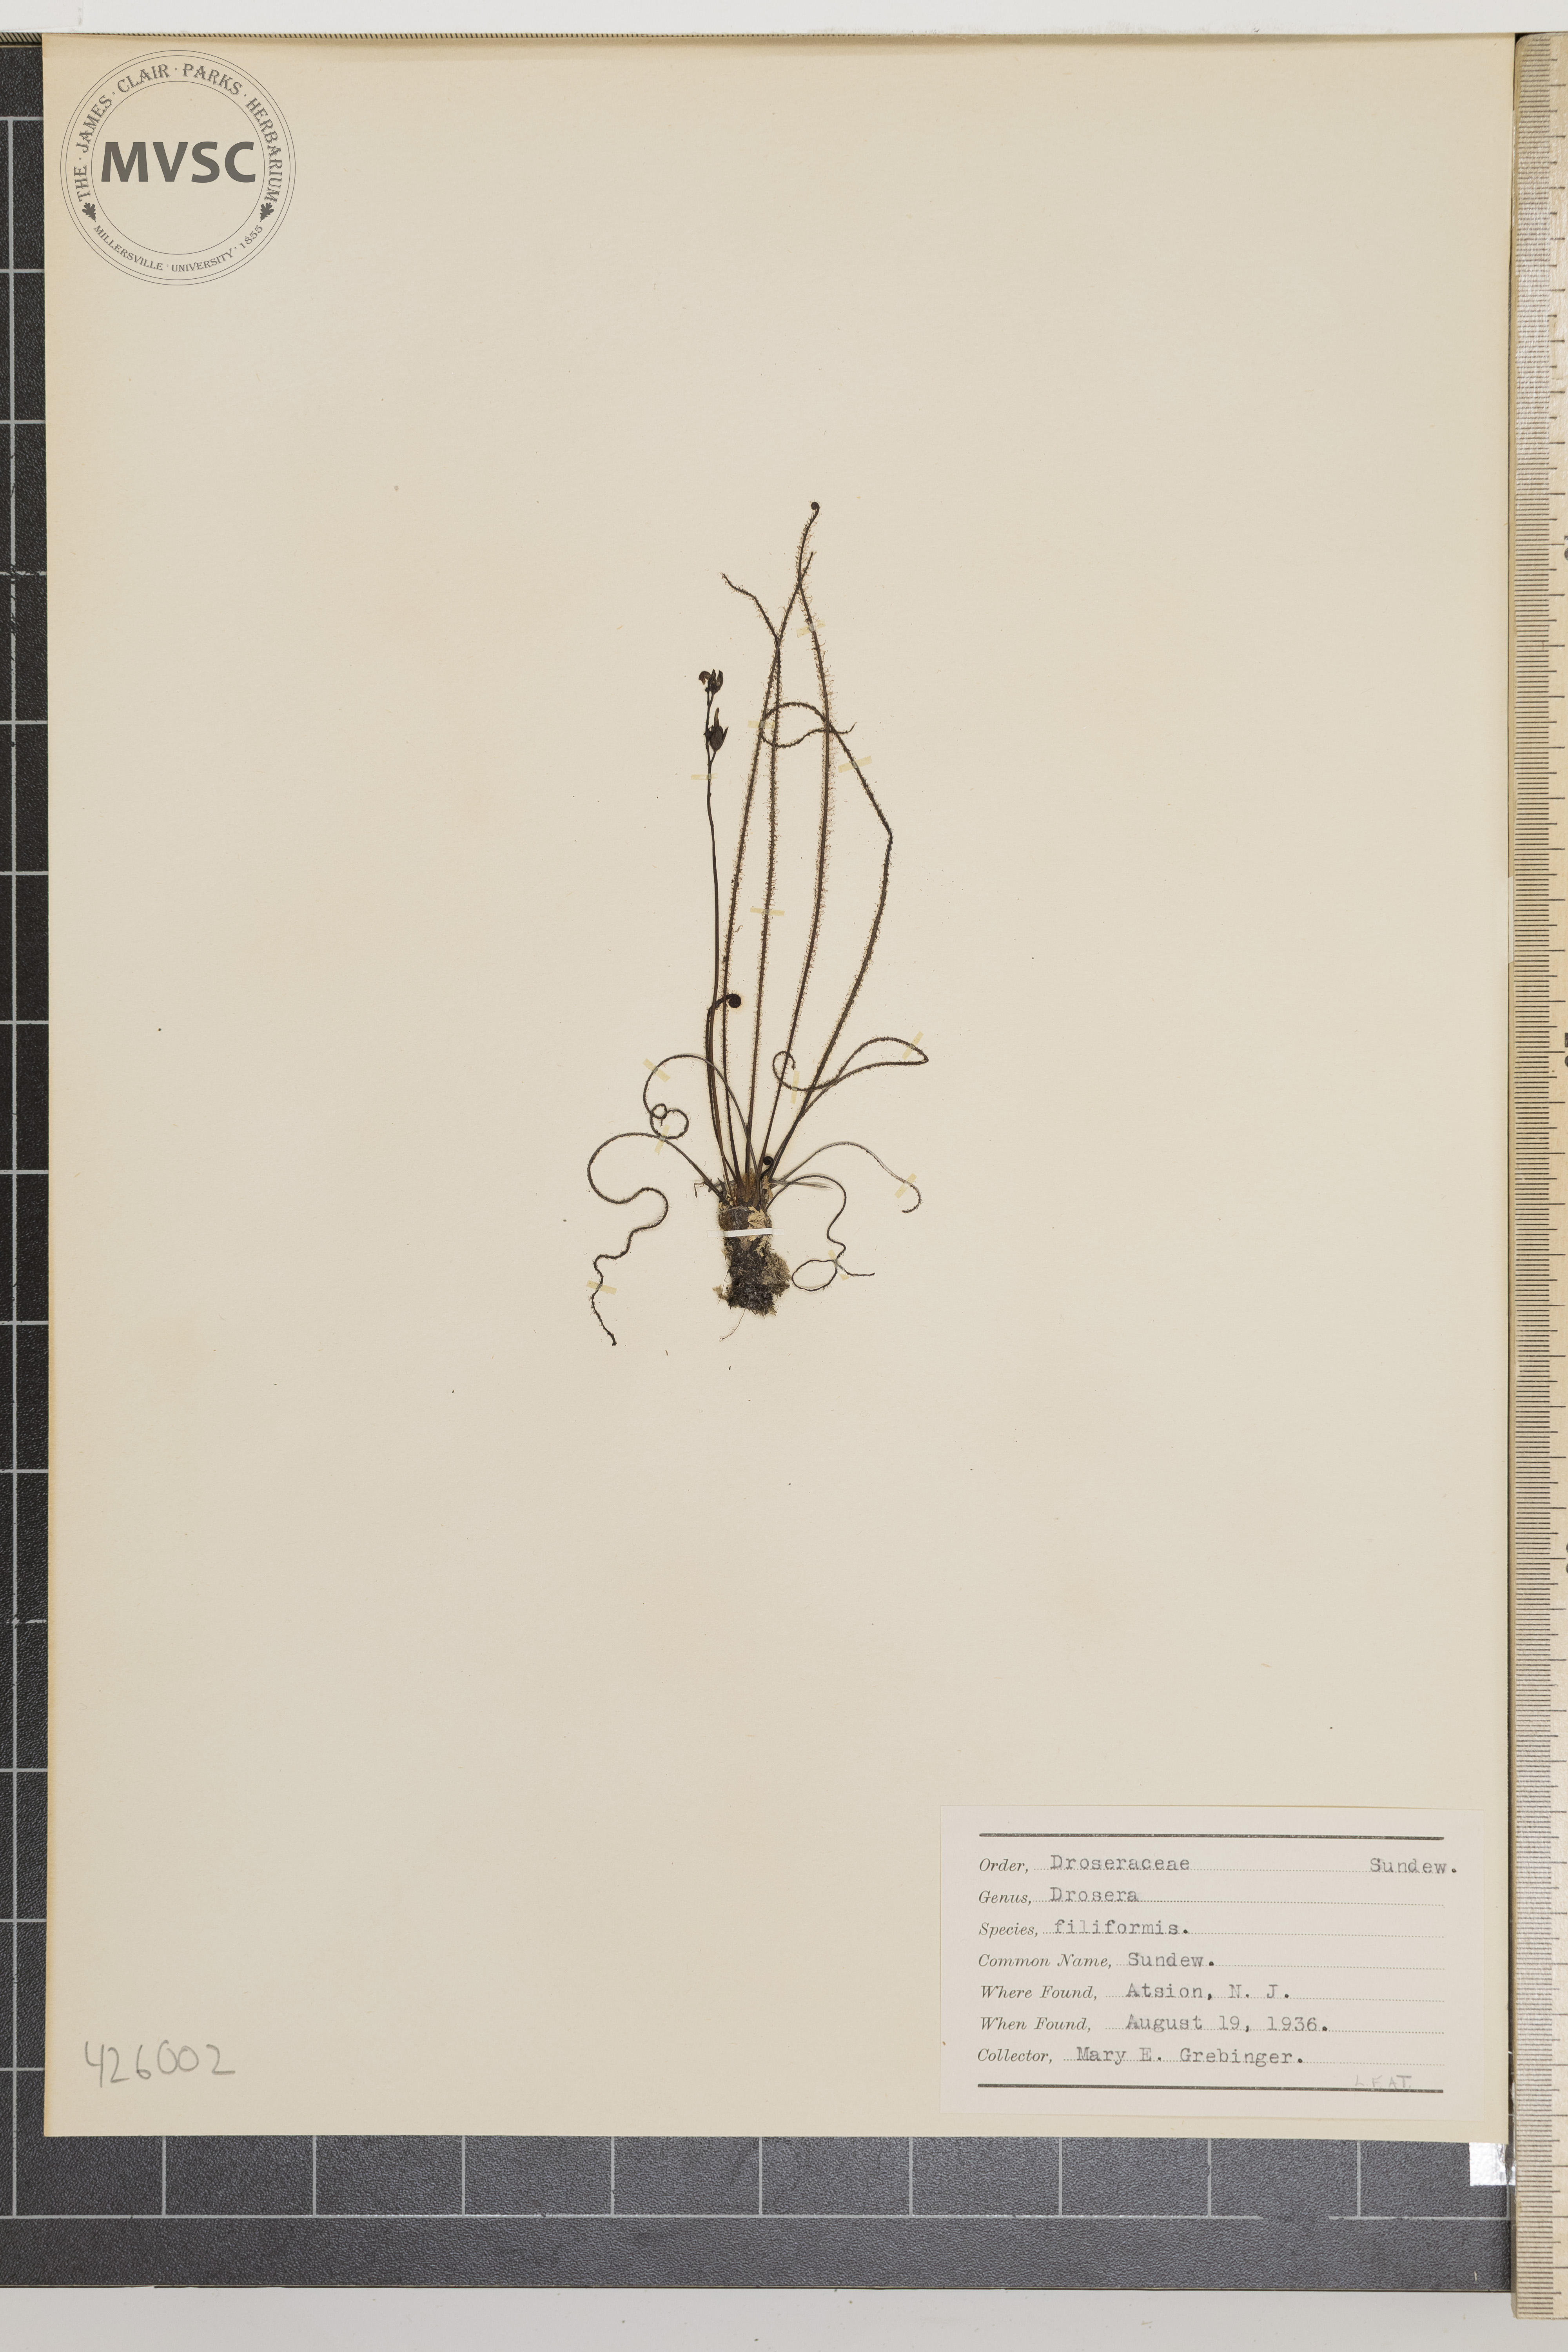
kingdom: Plantae
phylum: Tracheophyta
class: Magnoliopsida
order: Caryophyllales
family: Droseraceae
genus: Drosera
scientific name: Drosera filiformis
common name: Sundew
